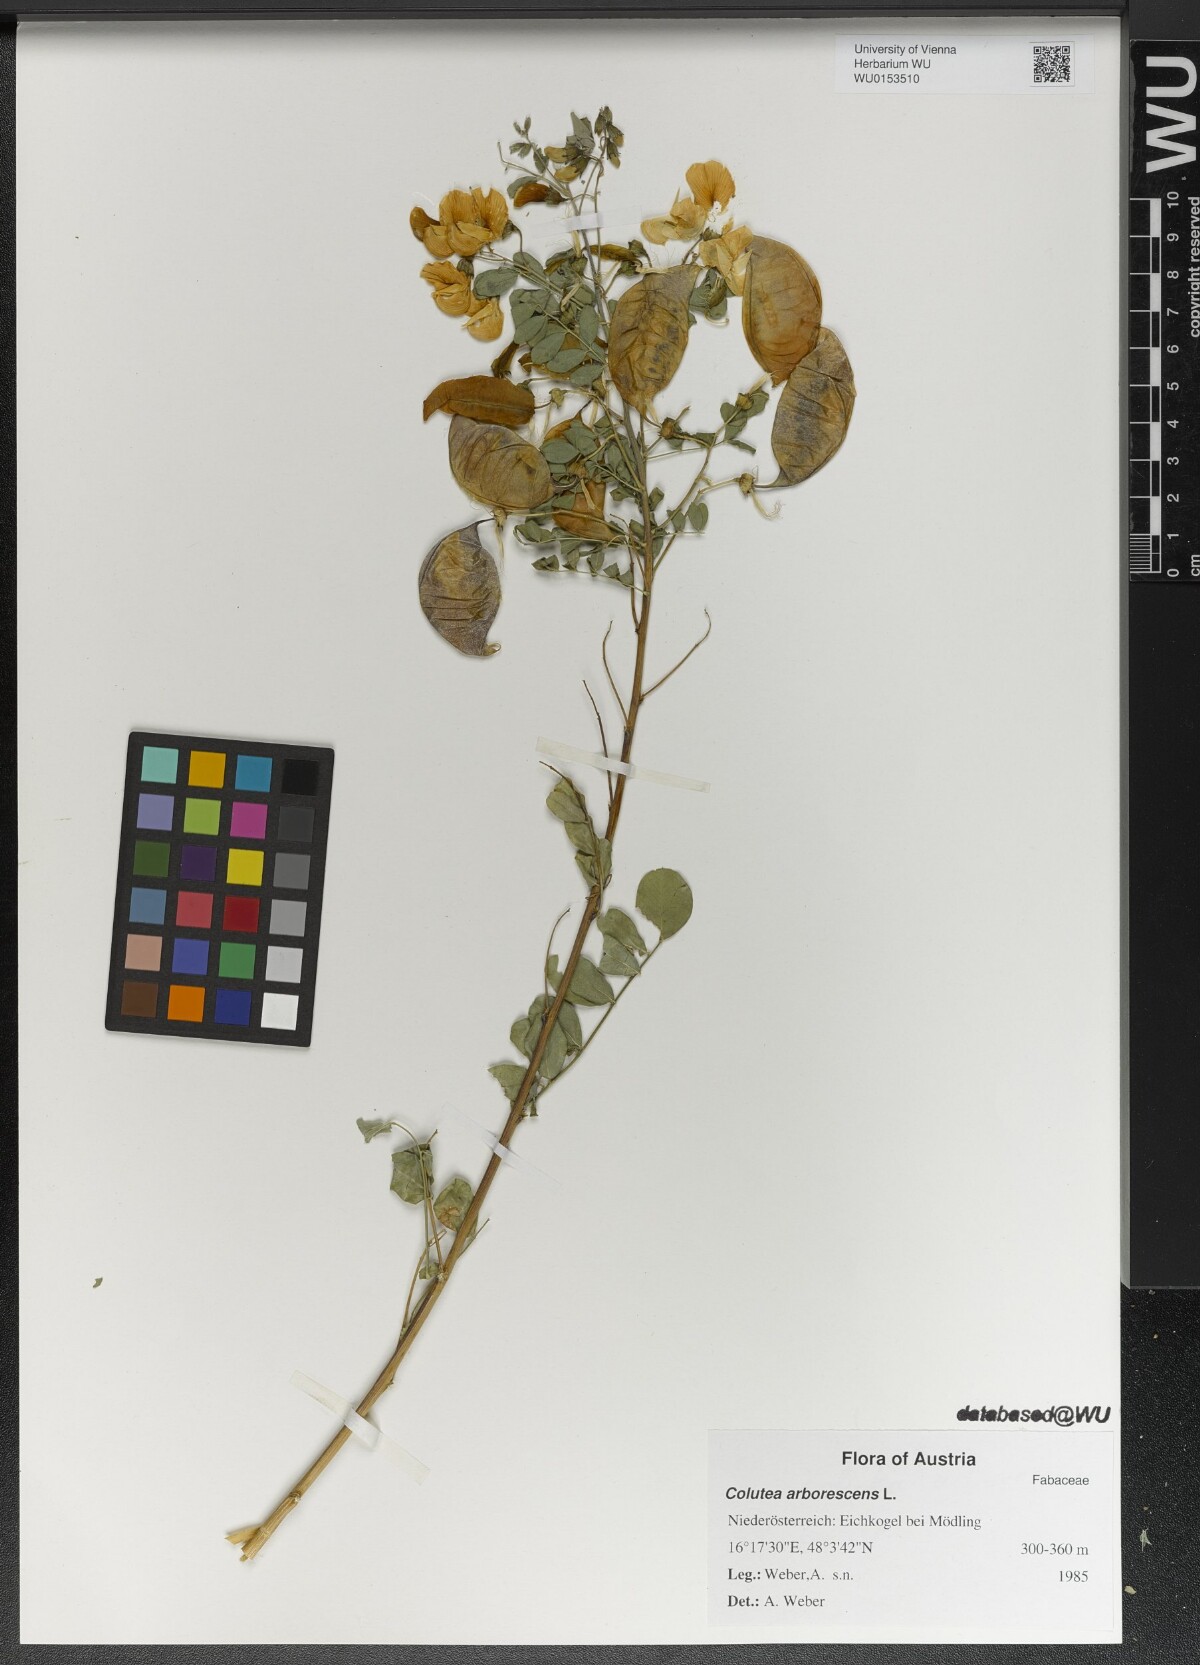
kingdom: Plantae
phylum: Tracheophyta
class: Magnoliopsida
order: Fabales
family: Fabaceae
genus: Colutea
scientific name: Colutea arborescens
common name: Bladder-senna
